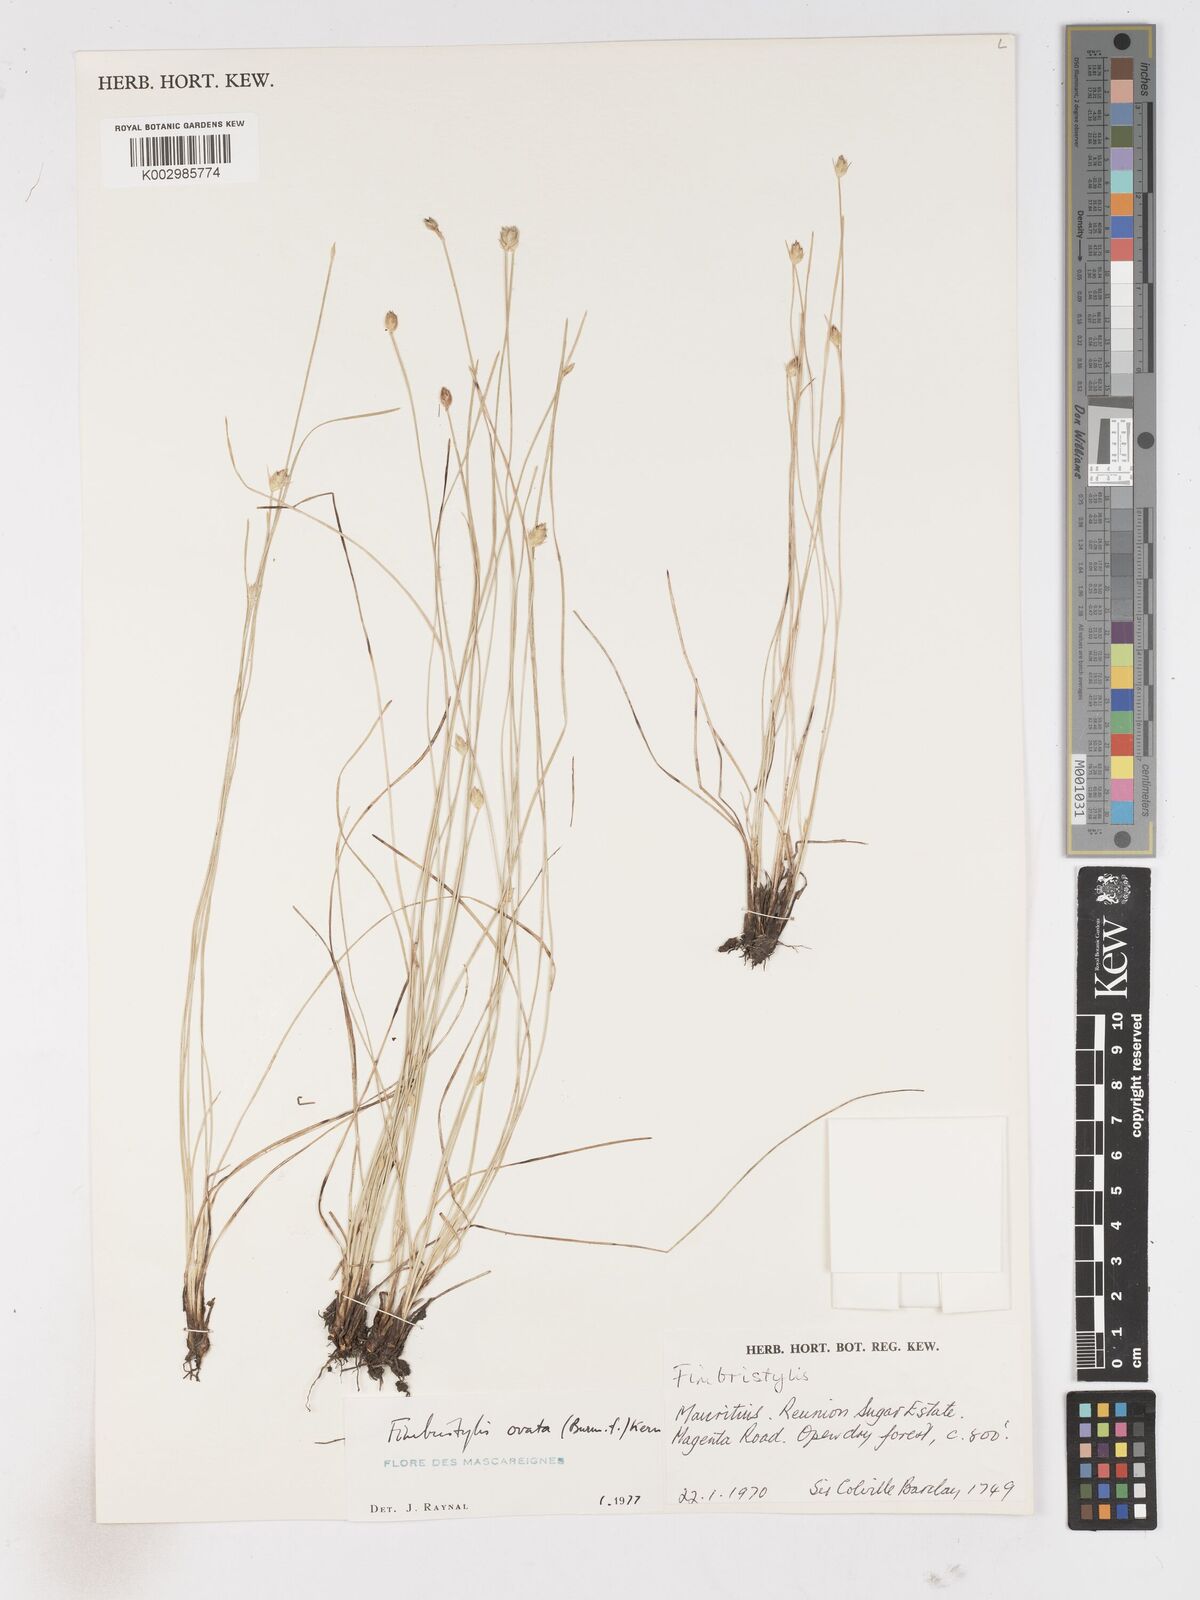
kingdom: Plantae
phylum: Tracheophyta
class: Liliopsida
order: Poales
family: Cyperaceae
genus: Abildgaardia
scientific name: Abildgaardia ovata
